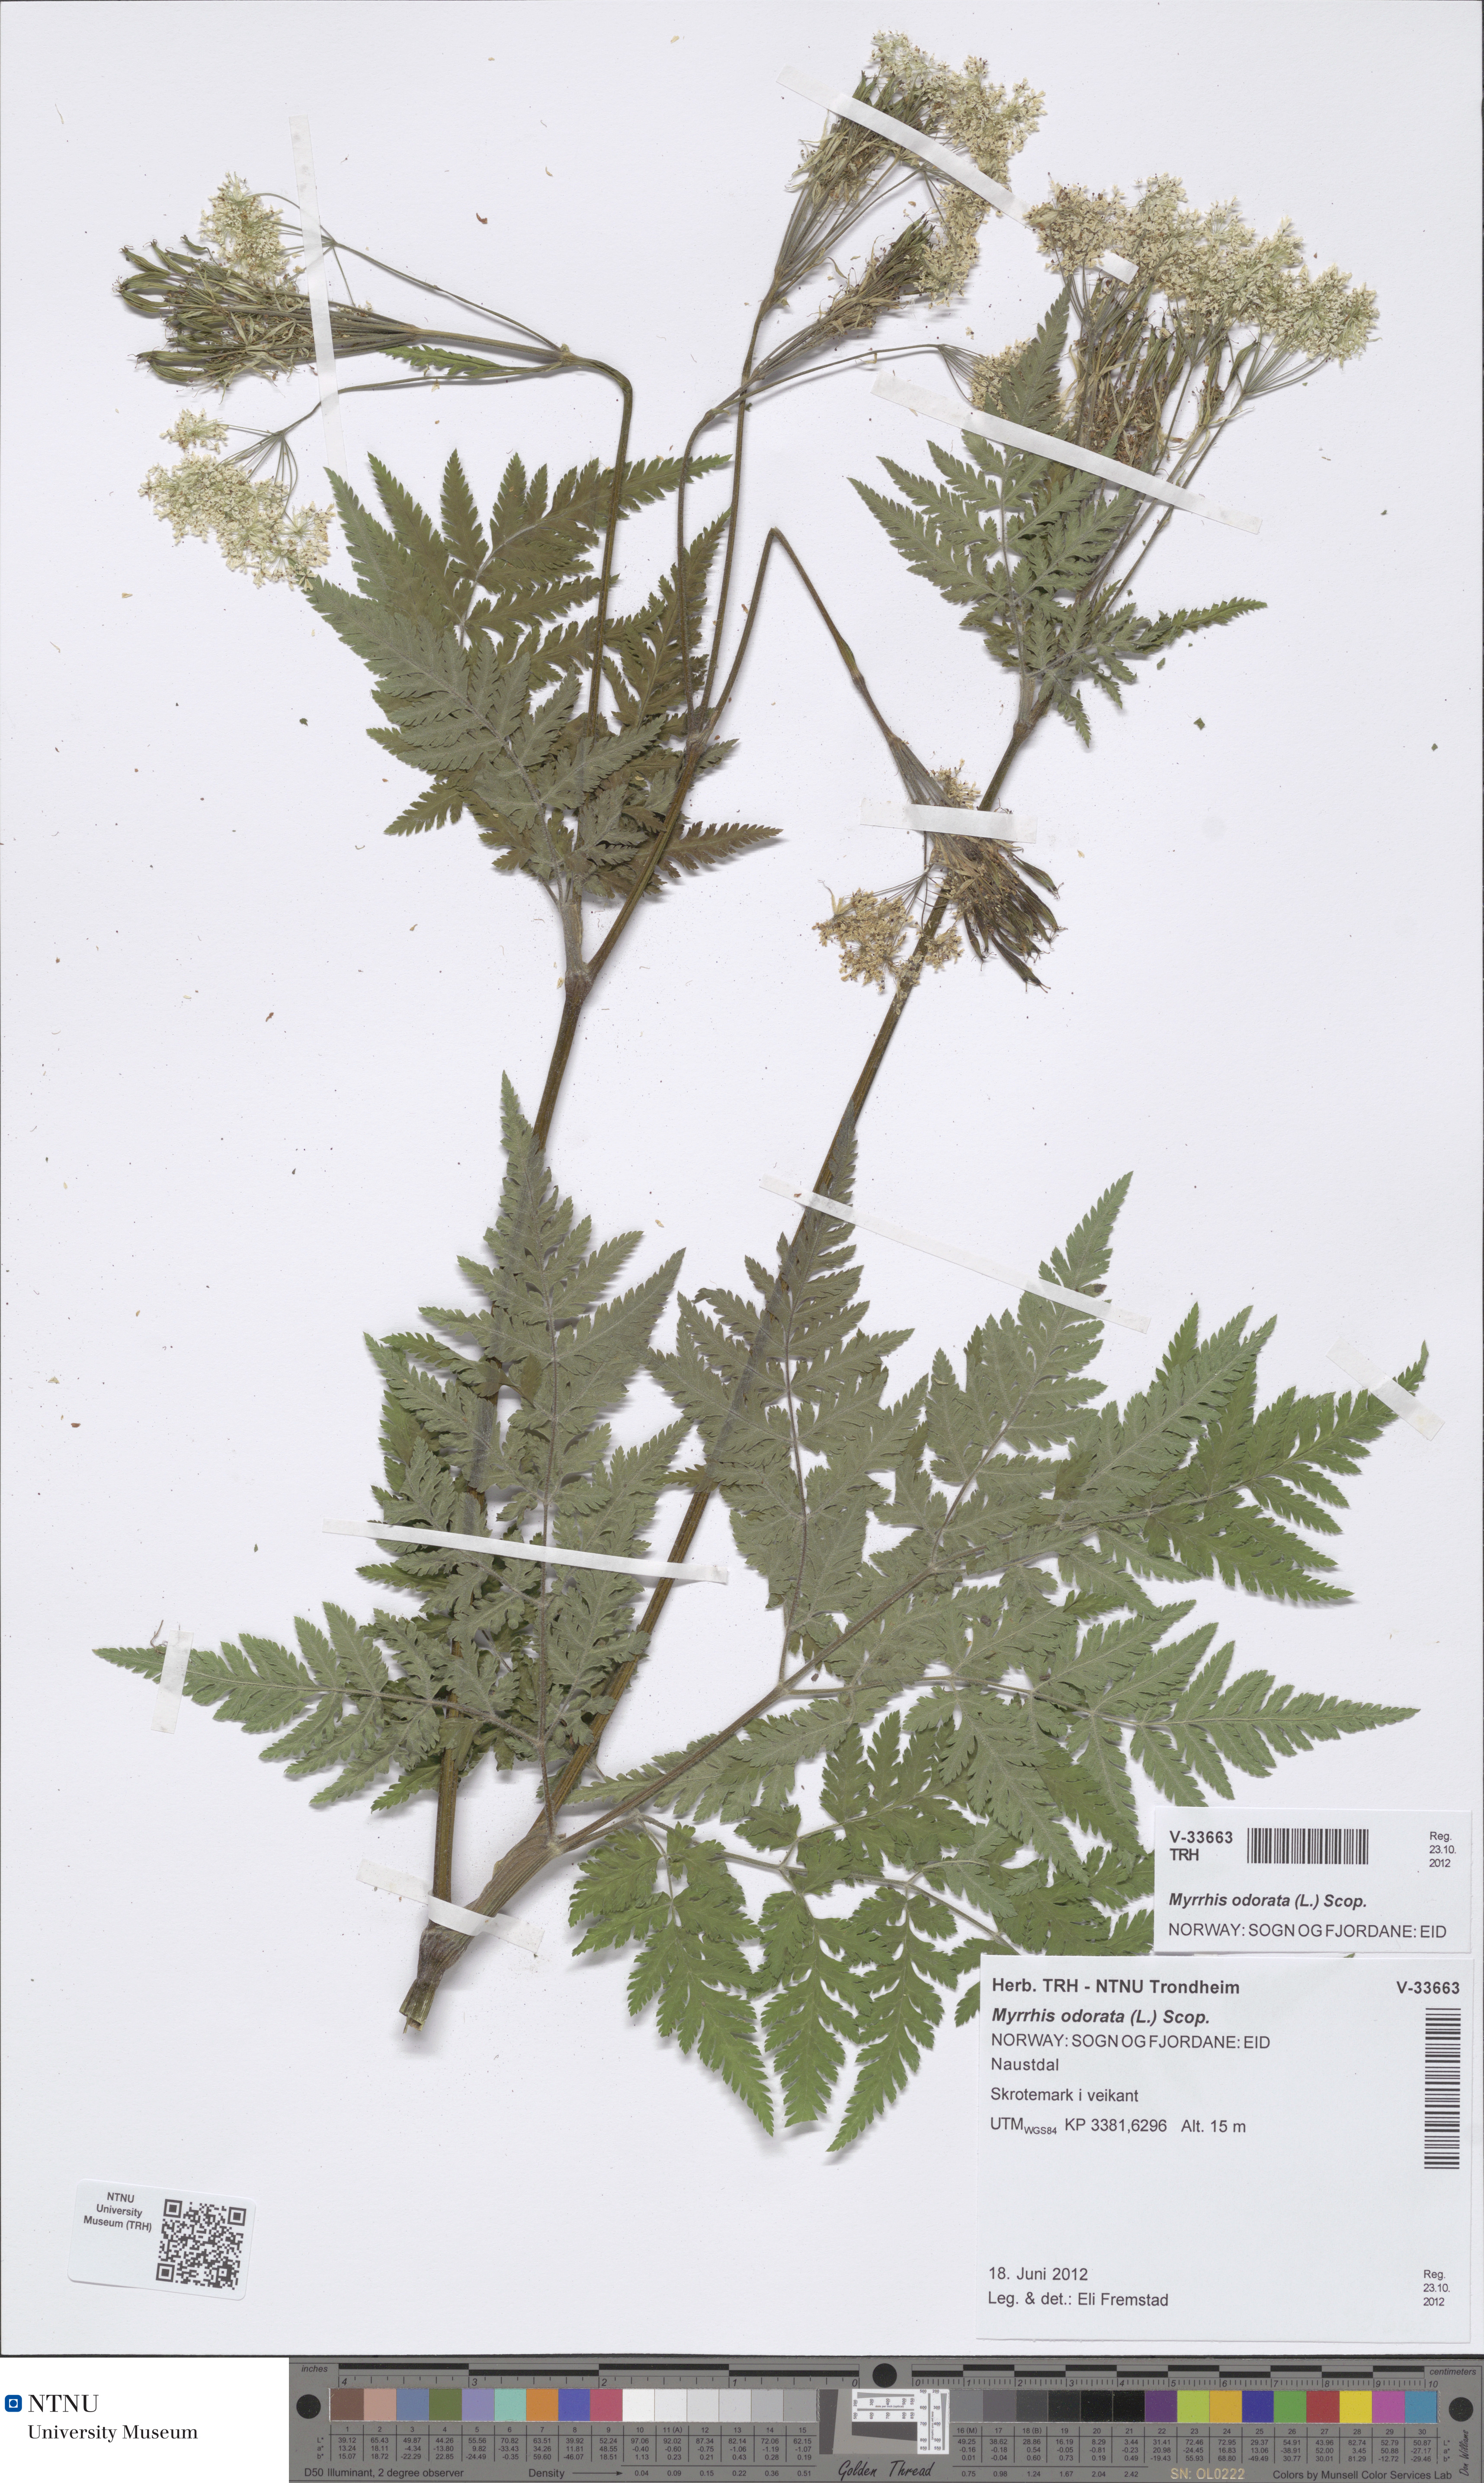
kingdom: Plantae
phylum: Tracheophyta
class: Magnoliopsida
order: Apiales
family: Apiaceae
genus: Myrrhis
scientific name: Myrrhis odorata
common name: Sweet cicely
